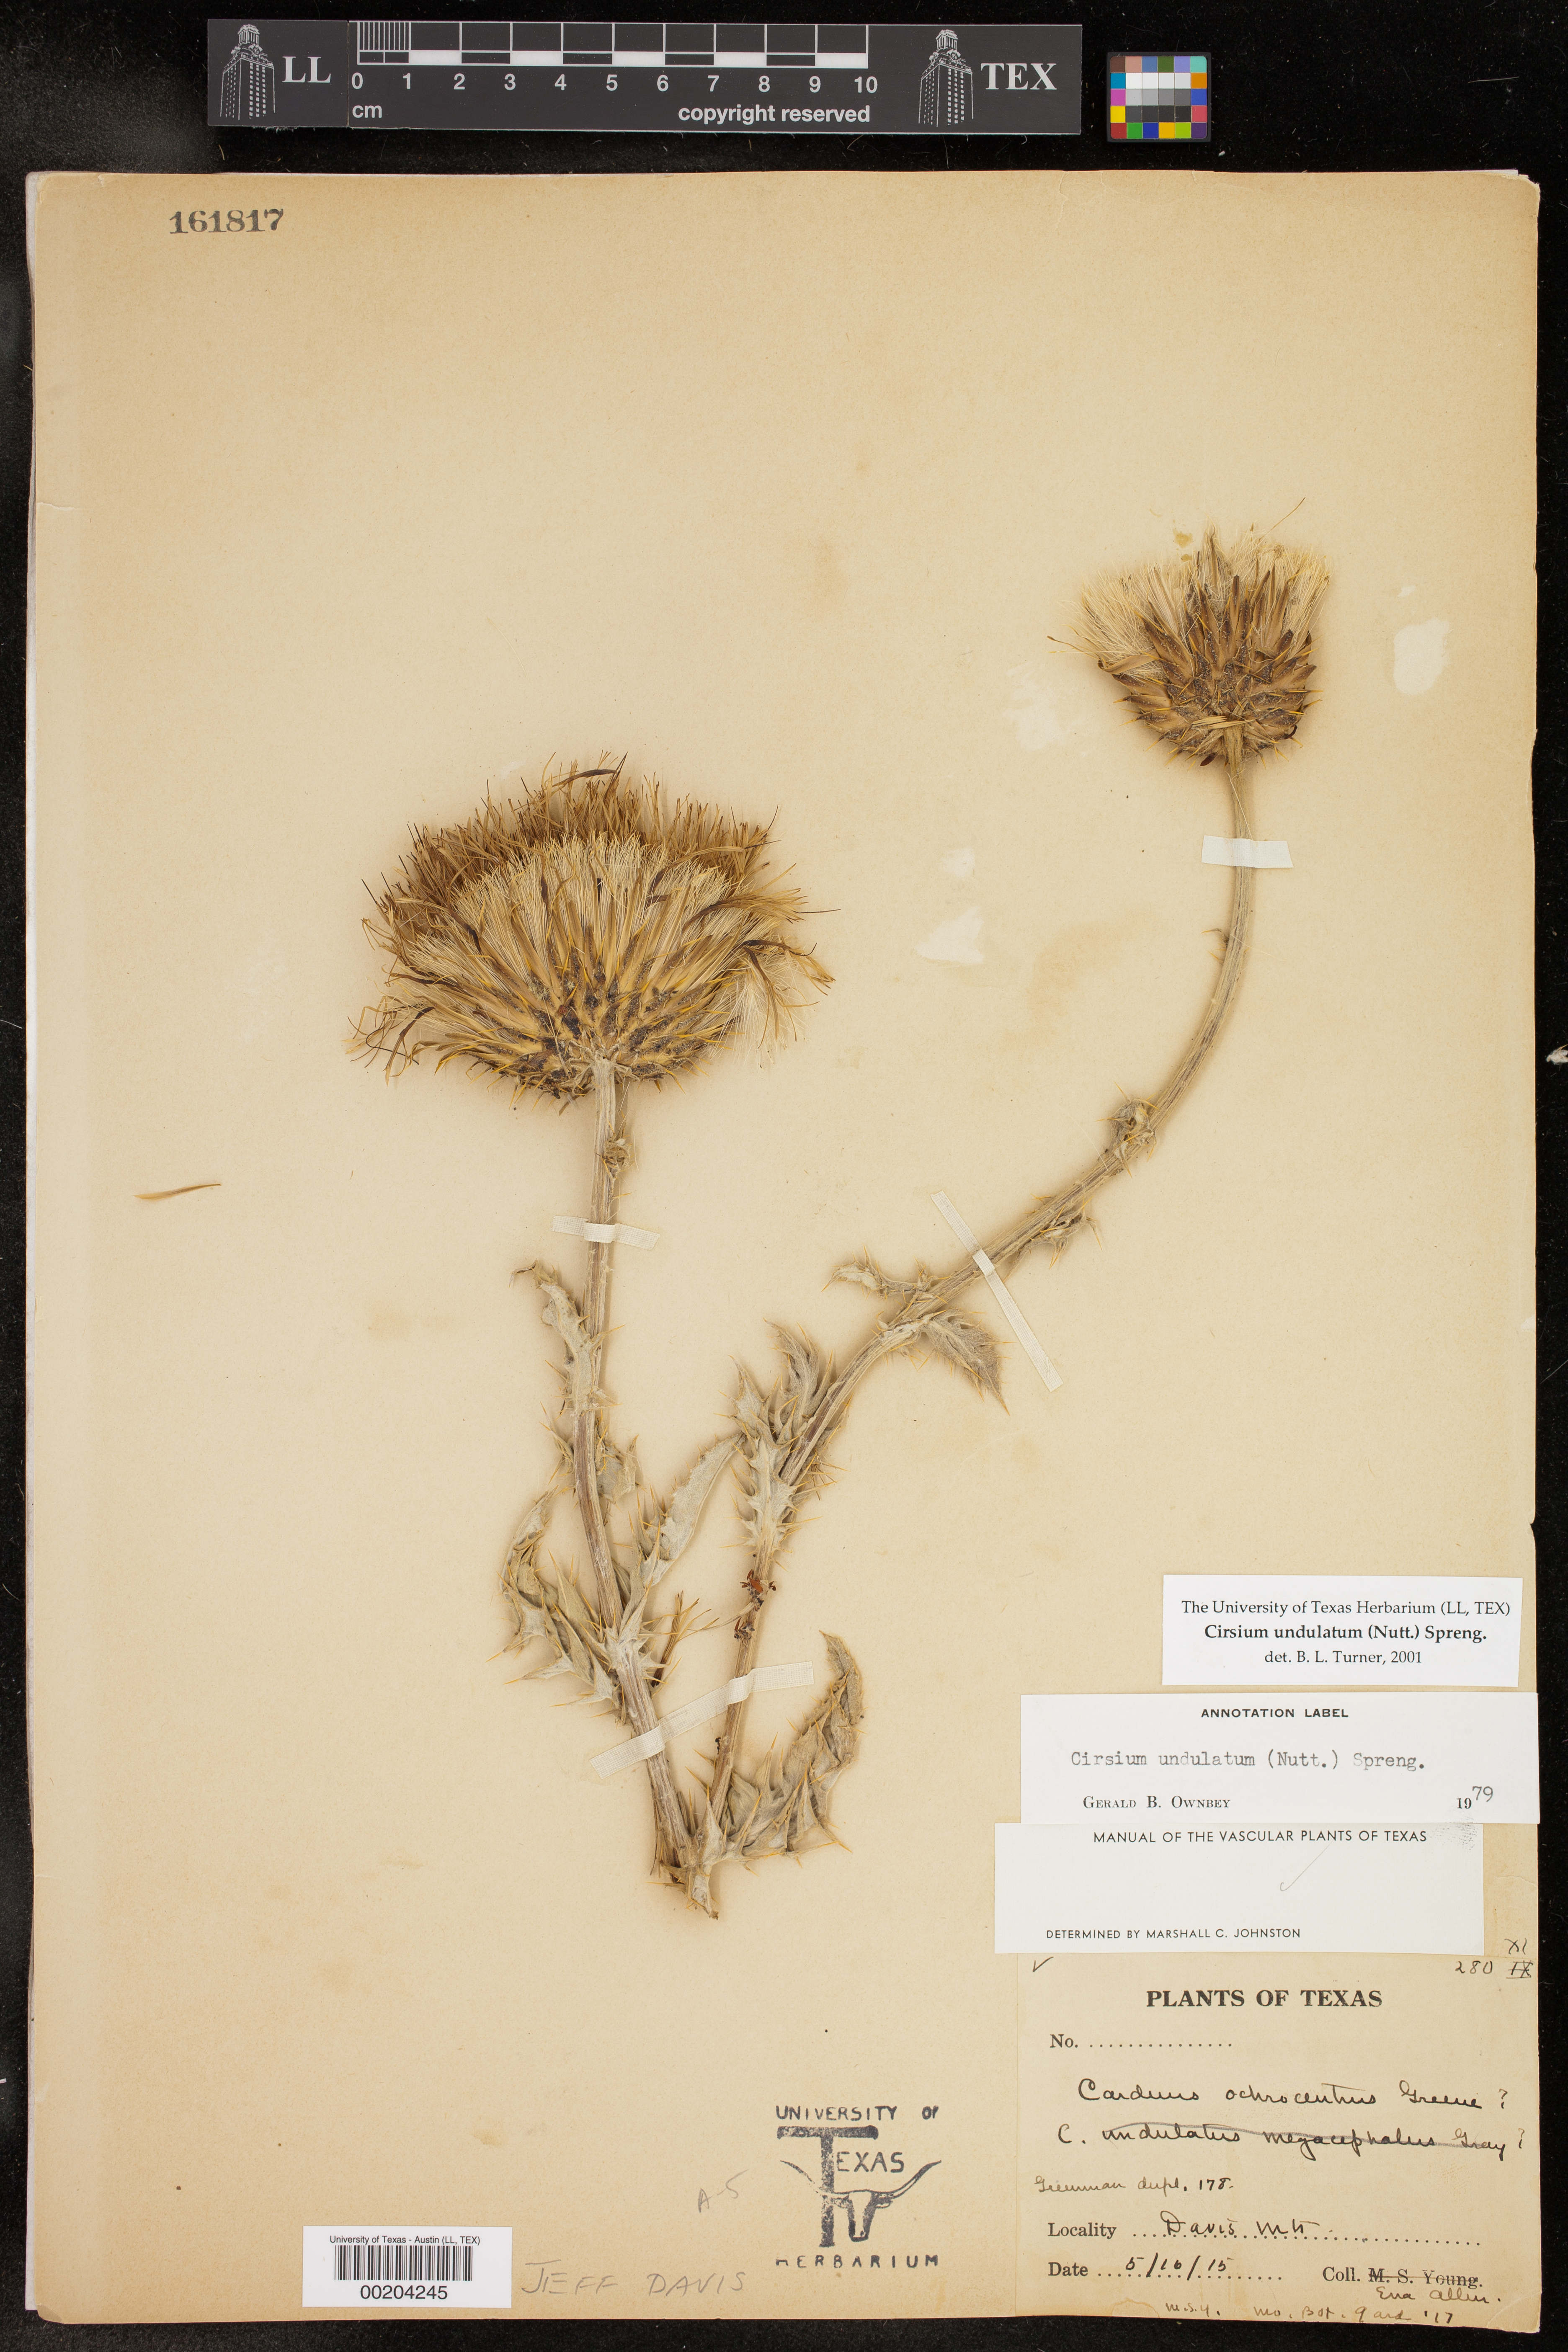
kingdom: Plantae
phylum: Tracheophyta
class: Magnoliopsida
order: Asterales
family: Asteraceae
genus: Cirsium
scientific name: Cirsium undulatum
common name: Pasture thistle
